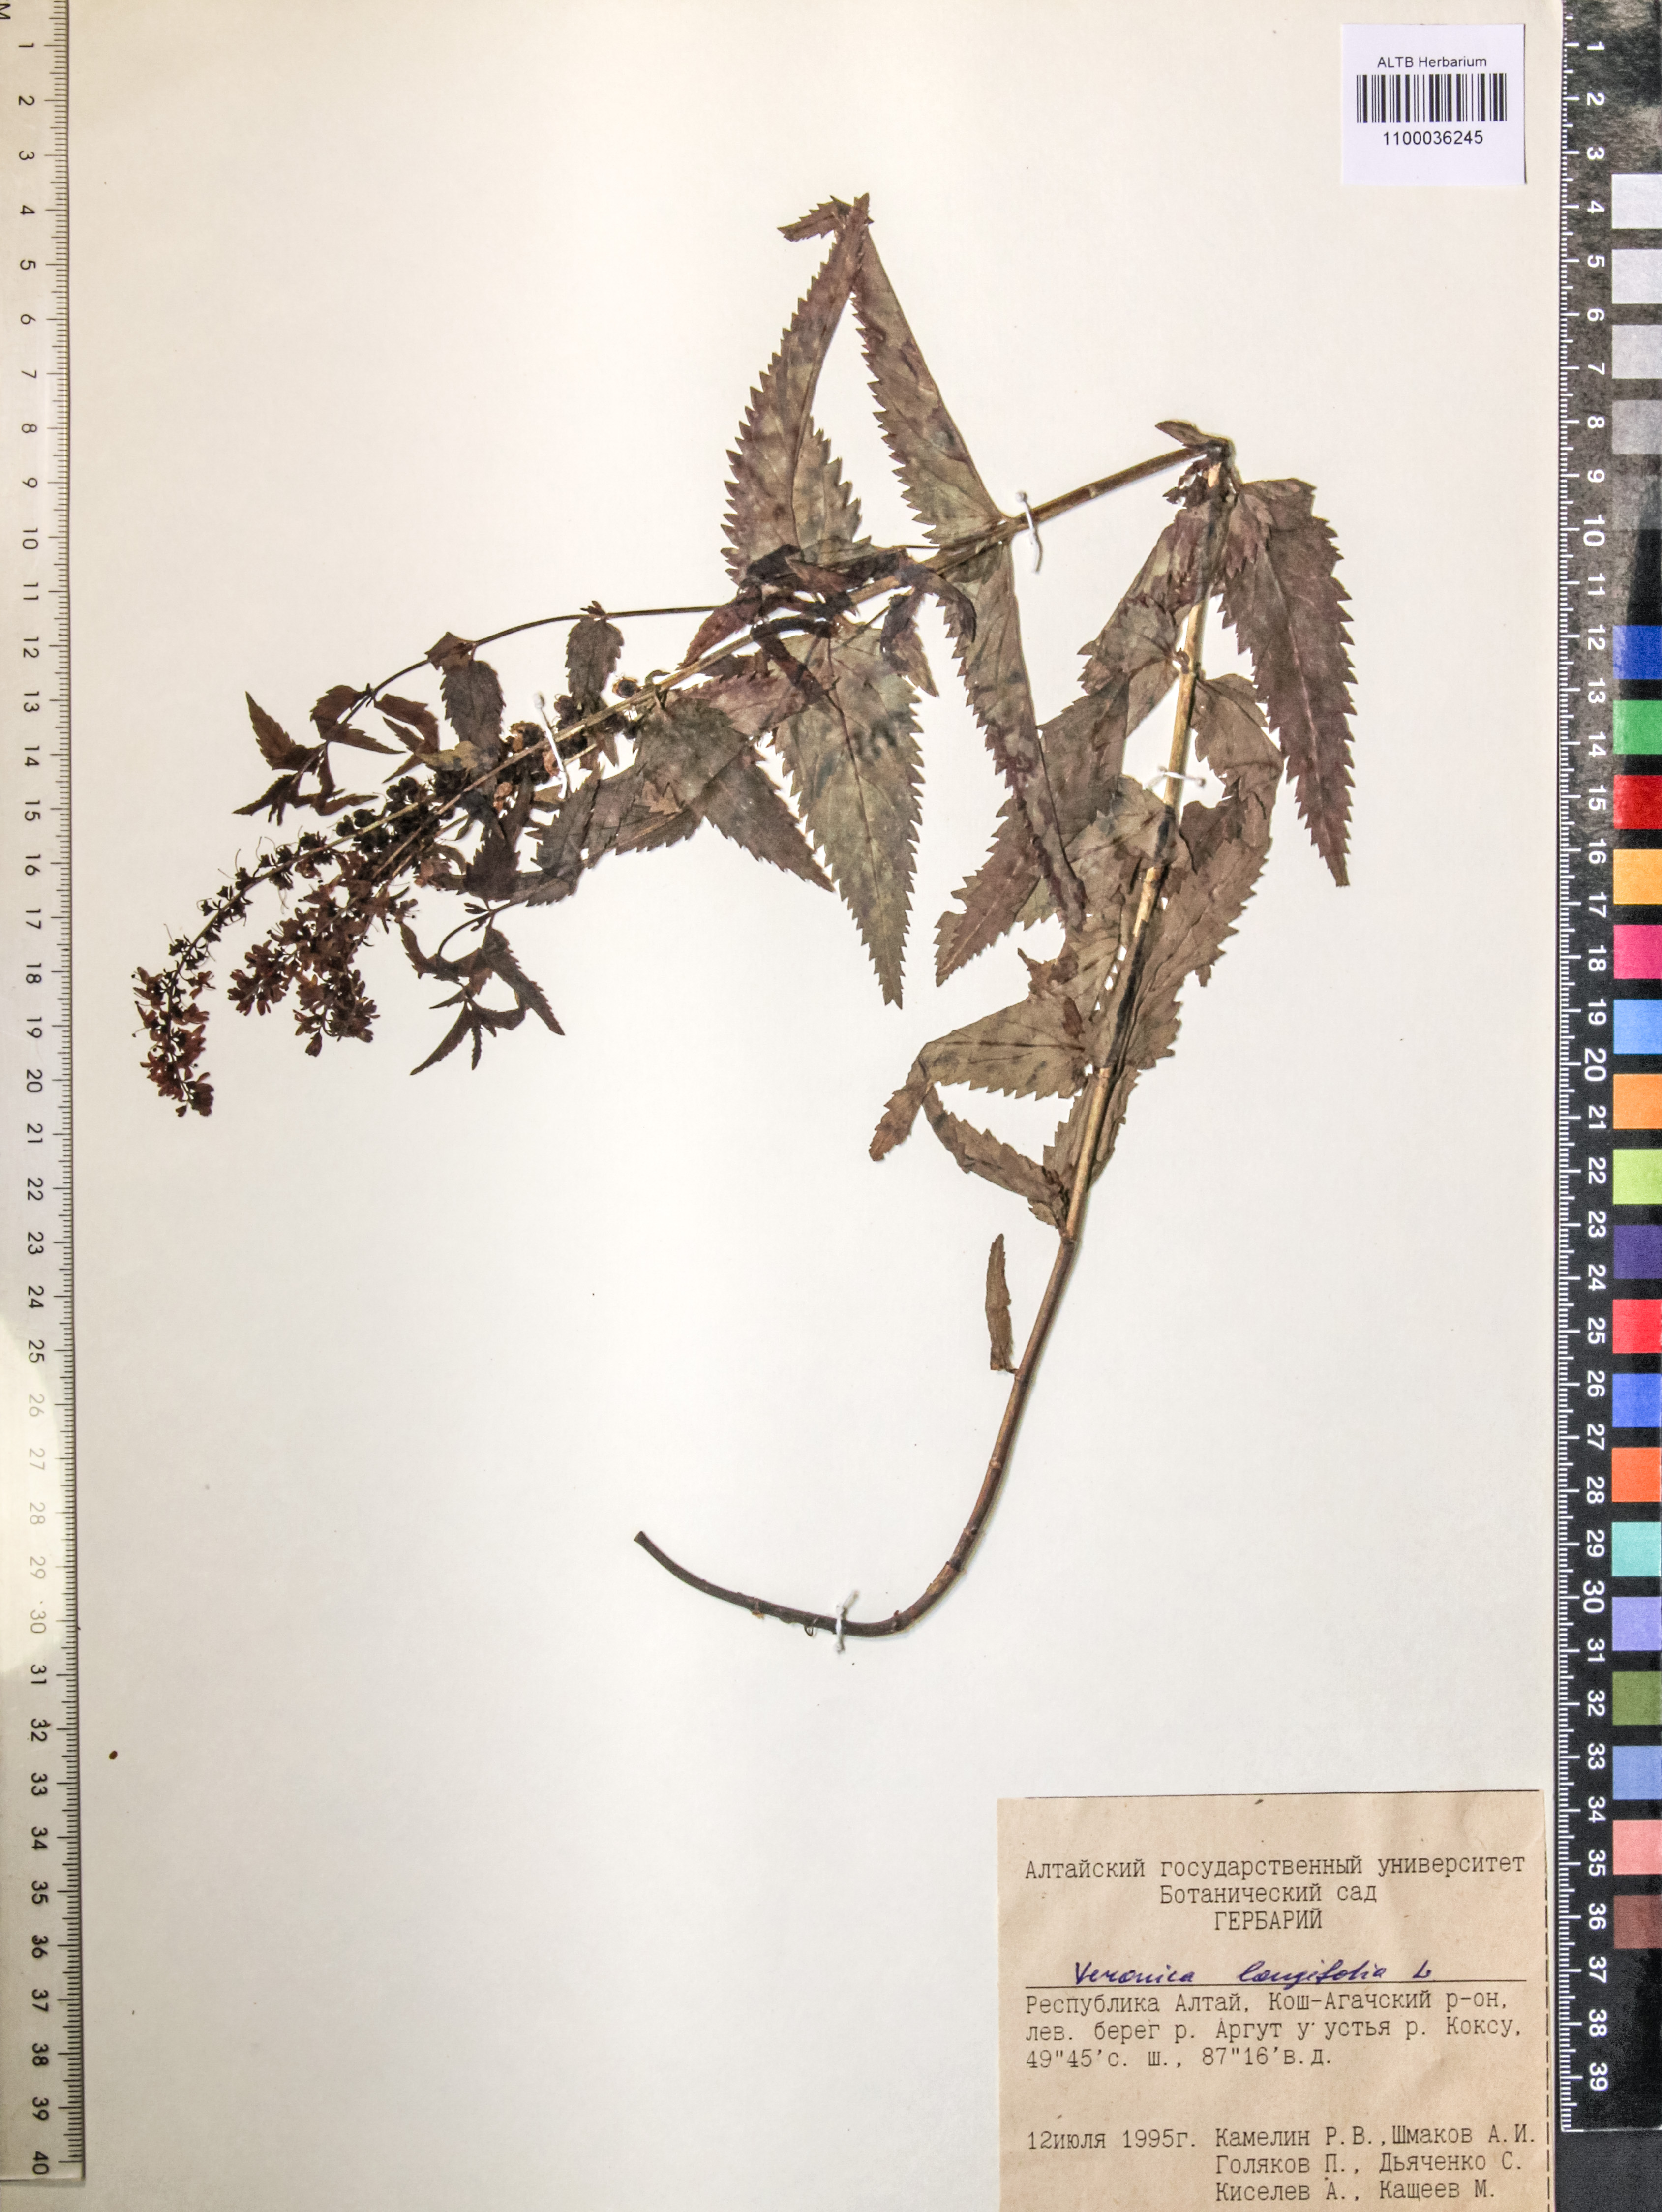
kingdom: Plantae
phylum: Tracheophyta
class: Magnoliopsida
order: Lamiales
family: Plantaginaceae
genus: Veronica
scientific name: Veronica longifolia
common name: Garden speedwell
